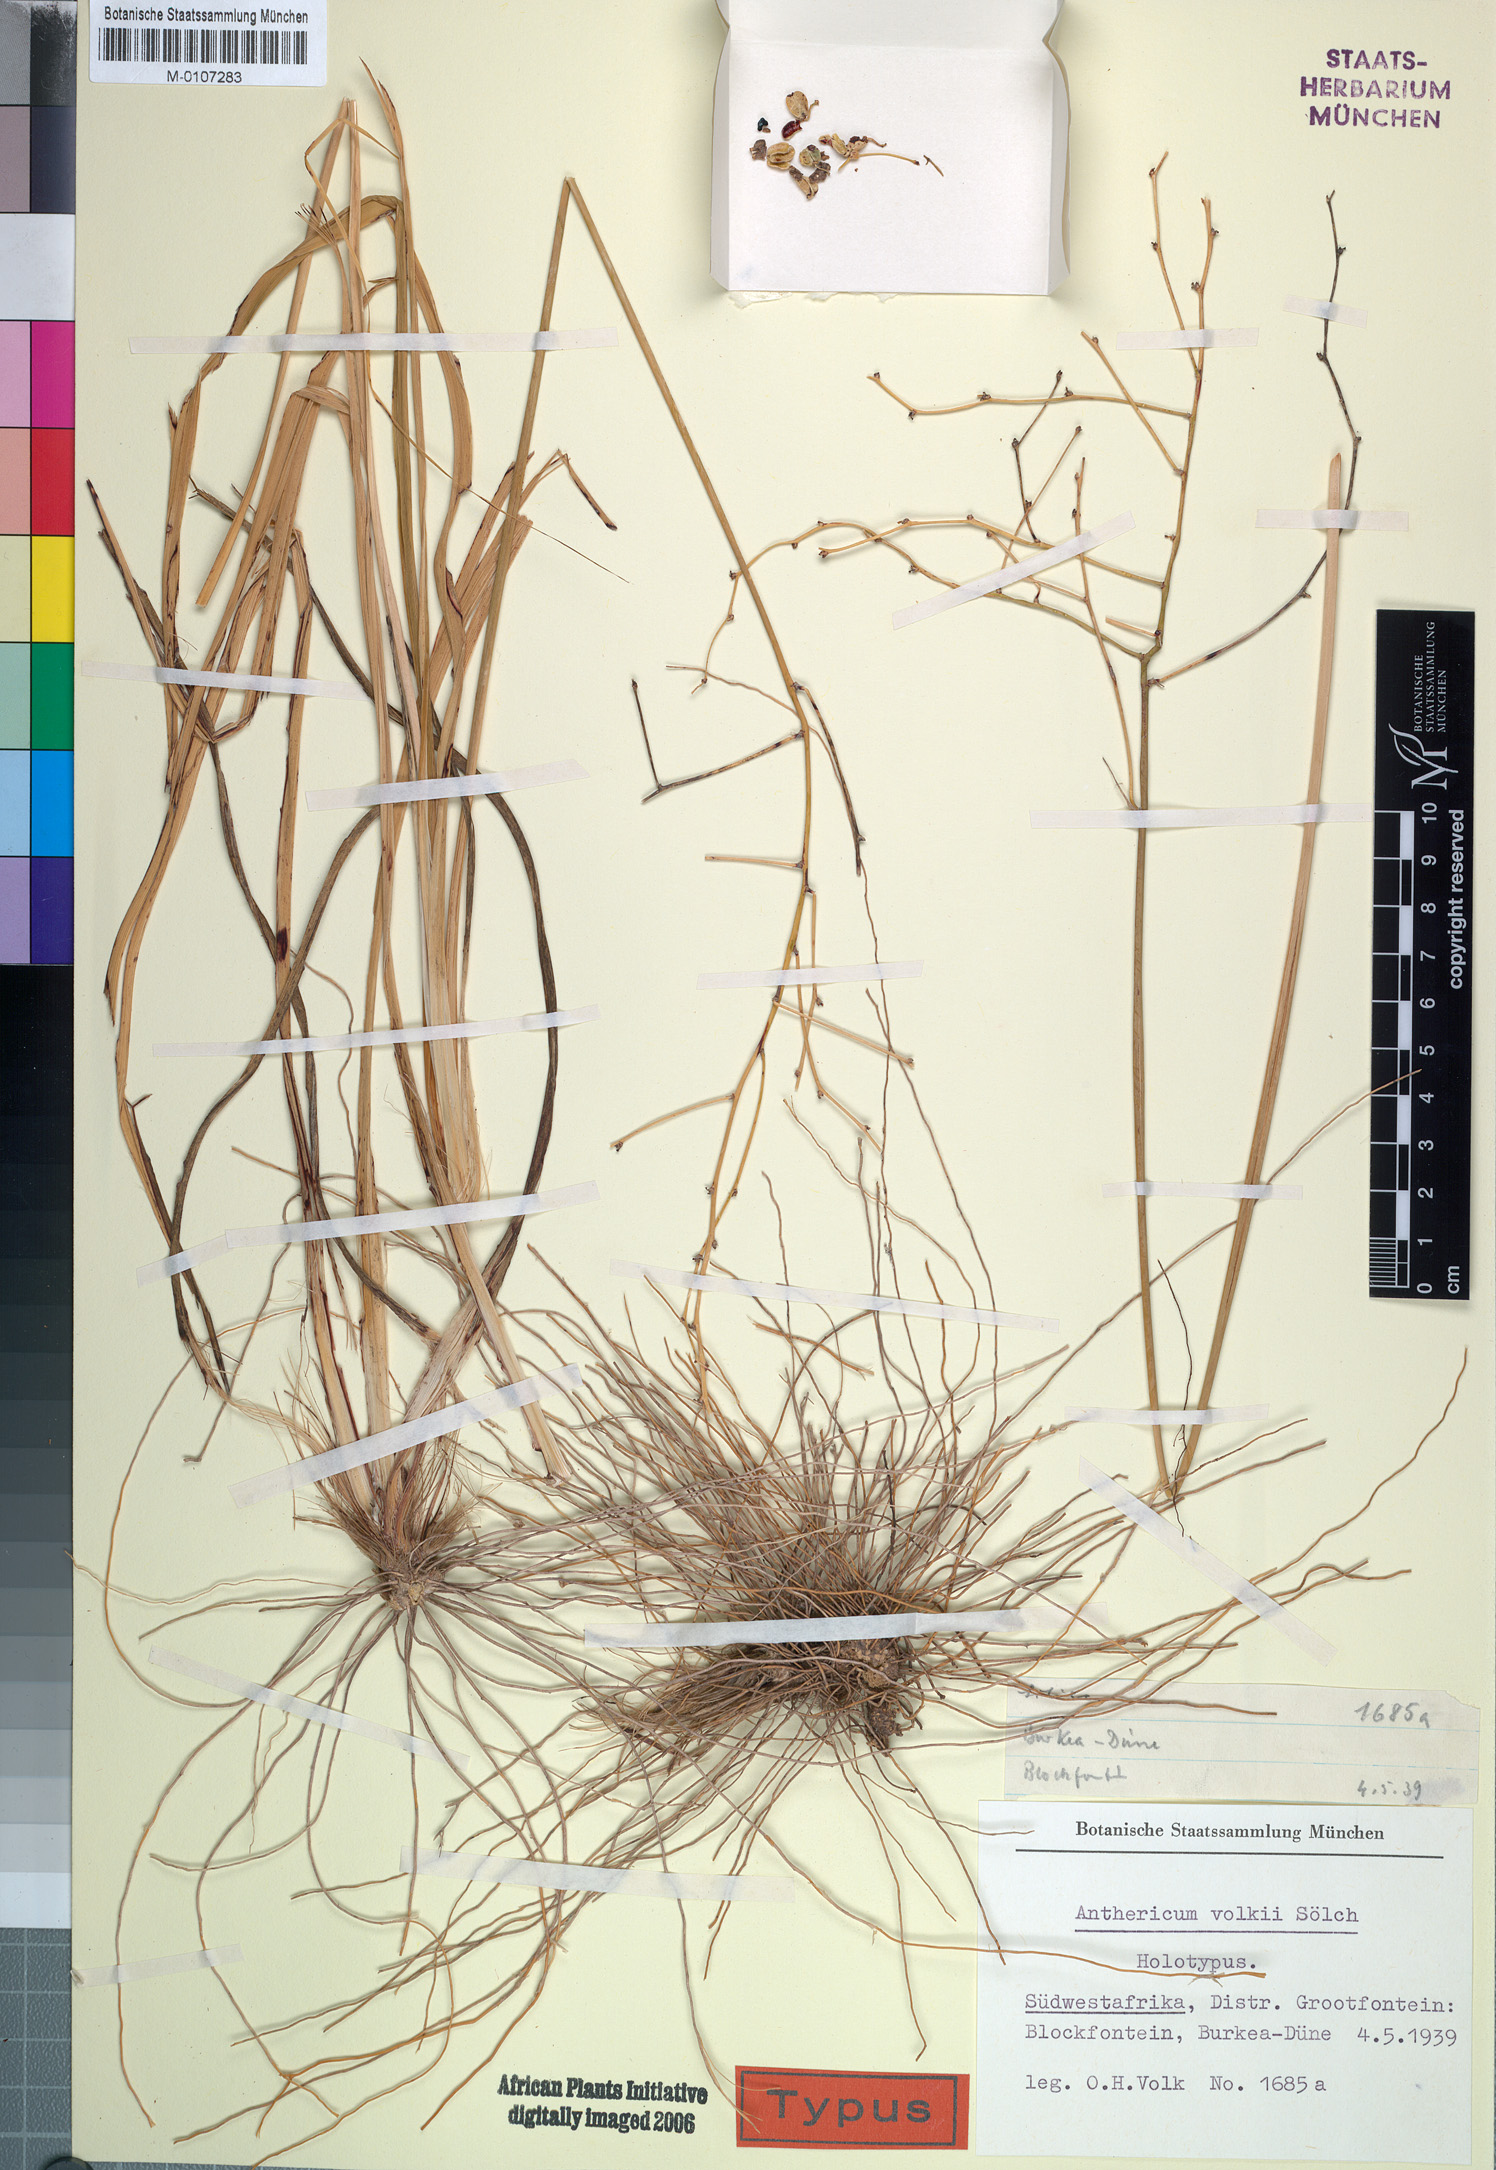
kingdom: Plantae
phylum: Tracheophyta
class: Liliopsida
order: Asparagales
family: Asparagaceae
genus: Chlorophytum
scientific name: Chlorophytum galpinii
